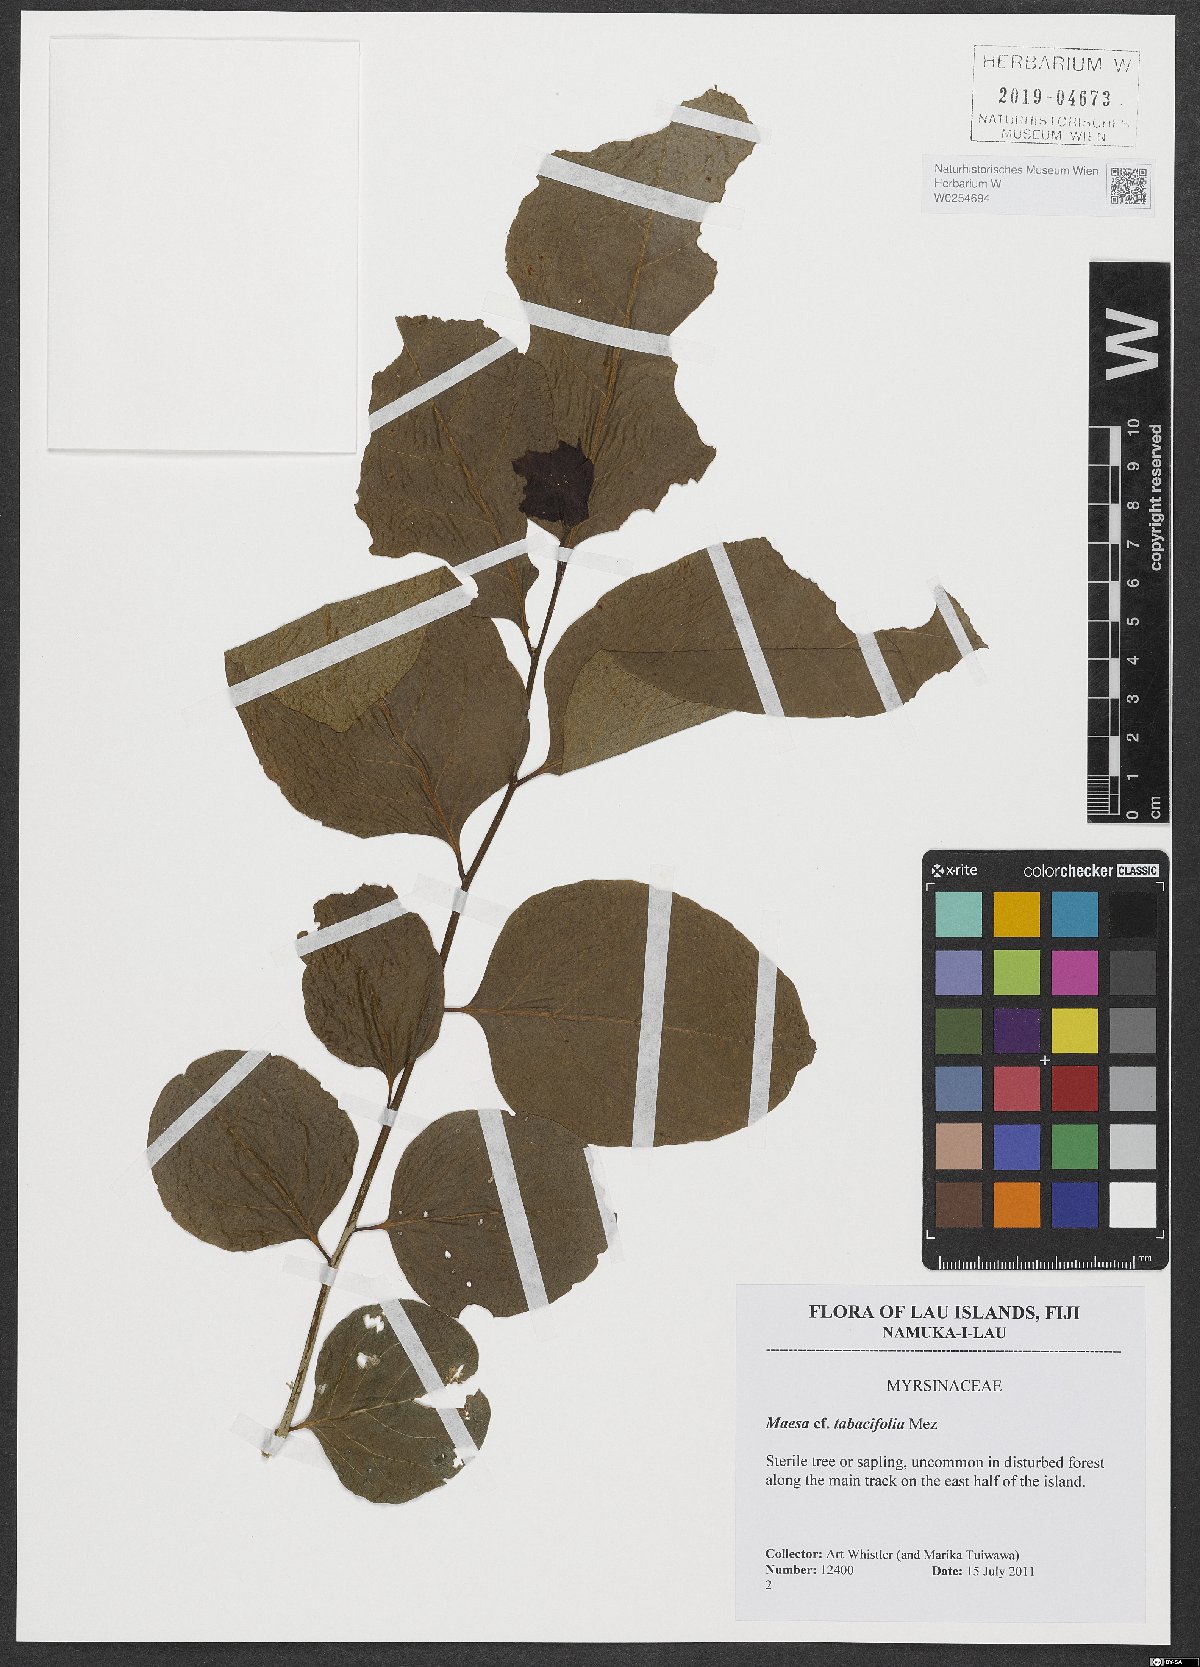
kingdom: Plantae
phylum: Tracheophyta
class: Magnoliopsida
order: Ericales
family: Primulaceae
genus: Maesa
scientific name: Maesa tabacifolia
